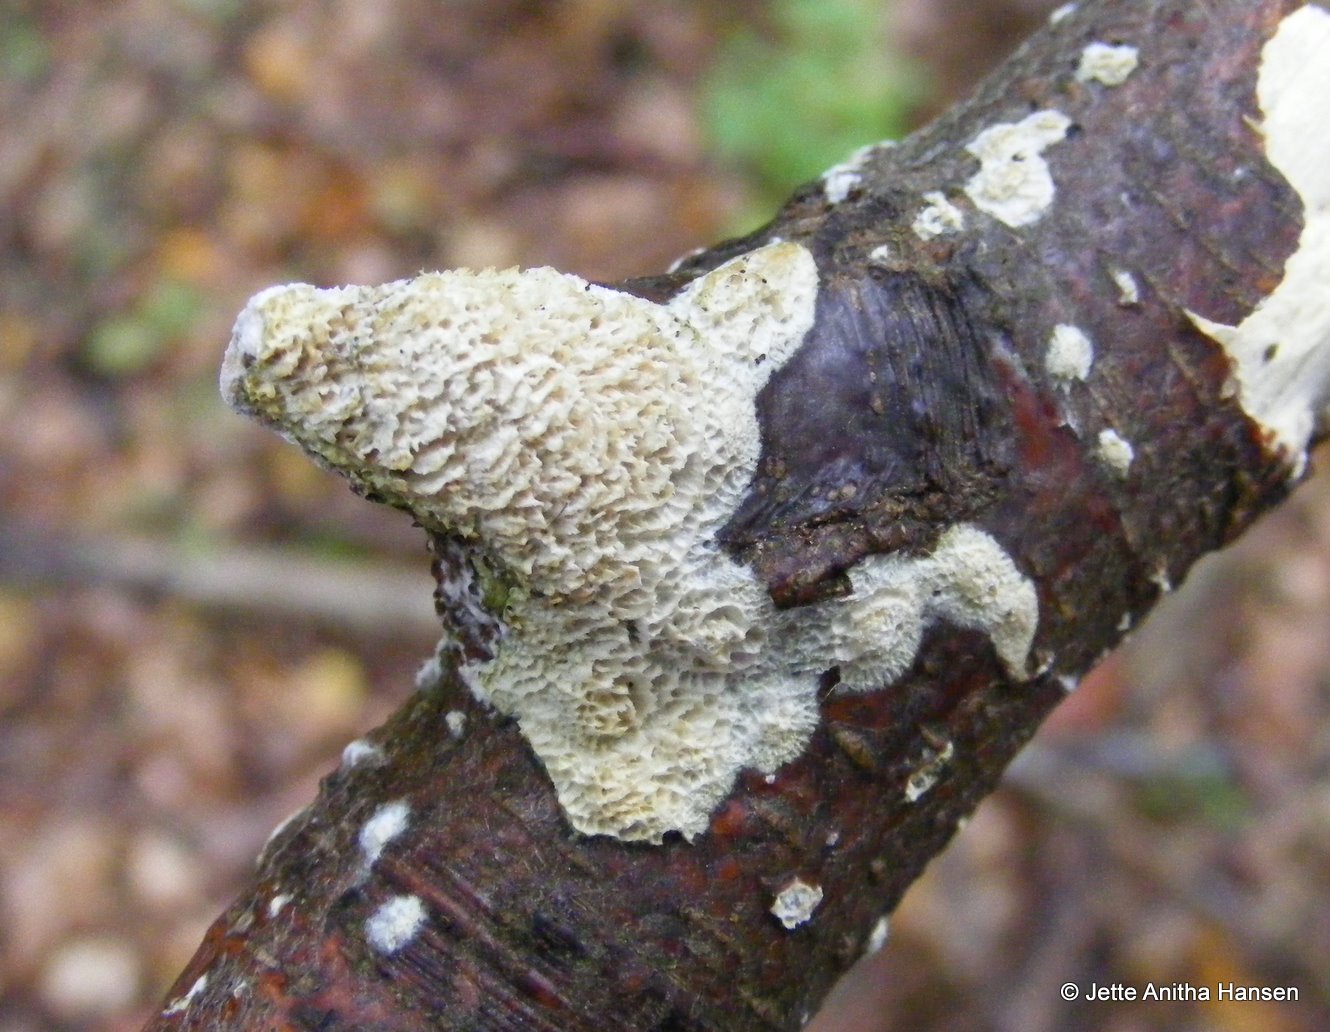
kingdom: Fungi
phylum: Basidiomycota
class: Agaricomycetes
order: Hymenochaetales
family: Schizoporaceae
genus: Schizopora
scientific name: Schizopora paradoxa
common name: hvid tandsvamp
